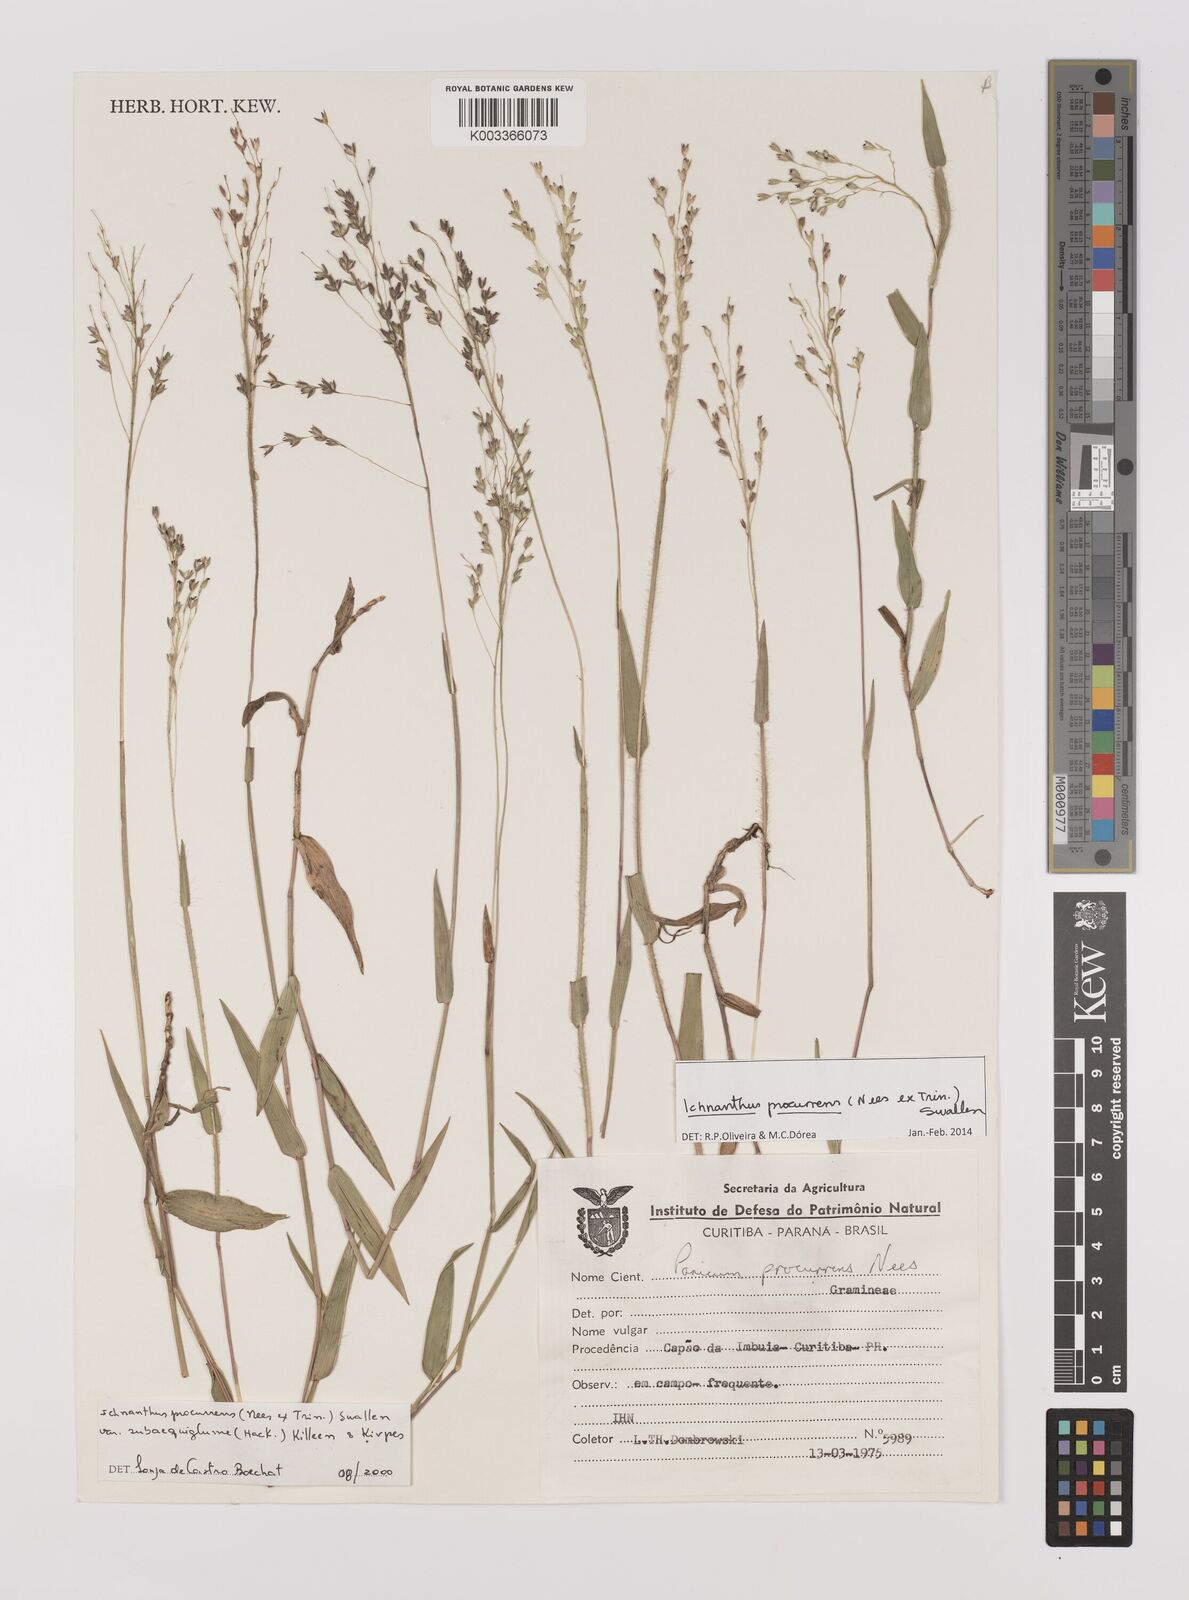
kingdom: Plantae
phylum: Tracheophyta
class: Liliopsida
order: Poales
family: Poaceae
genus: Oedochloa
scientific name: Oedochloa procurrens
